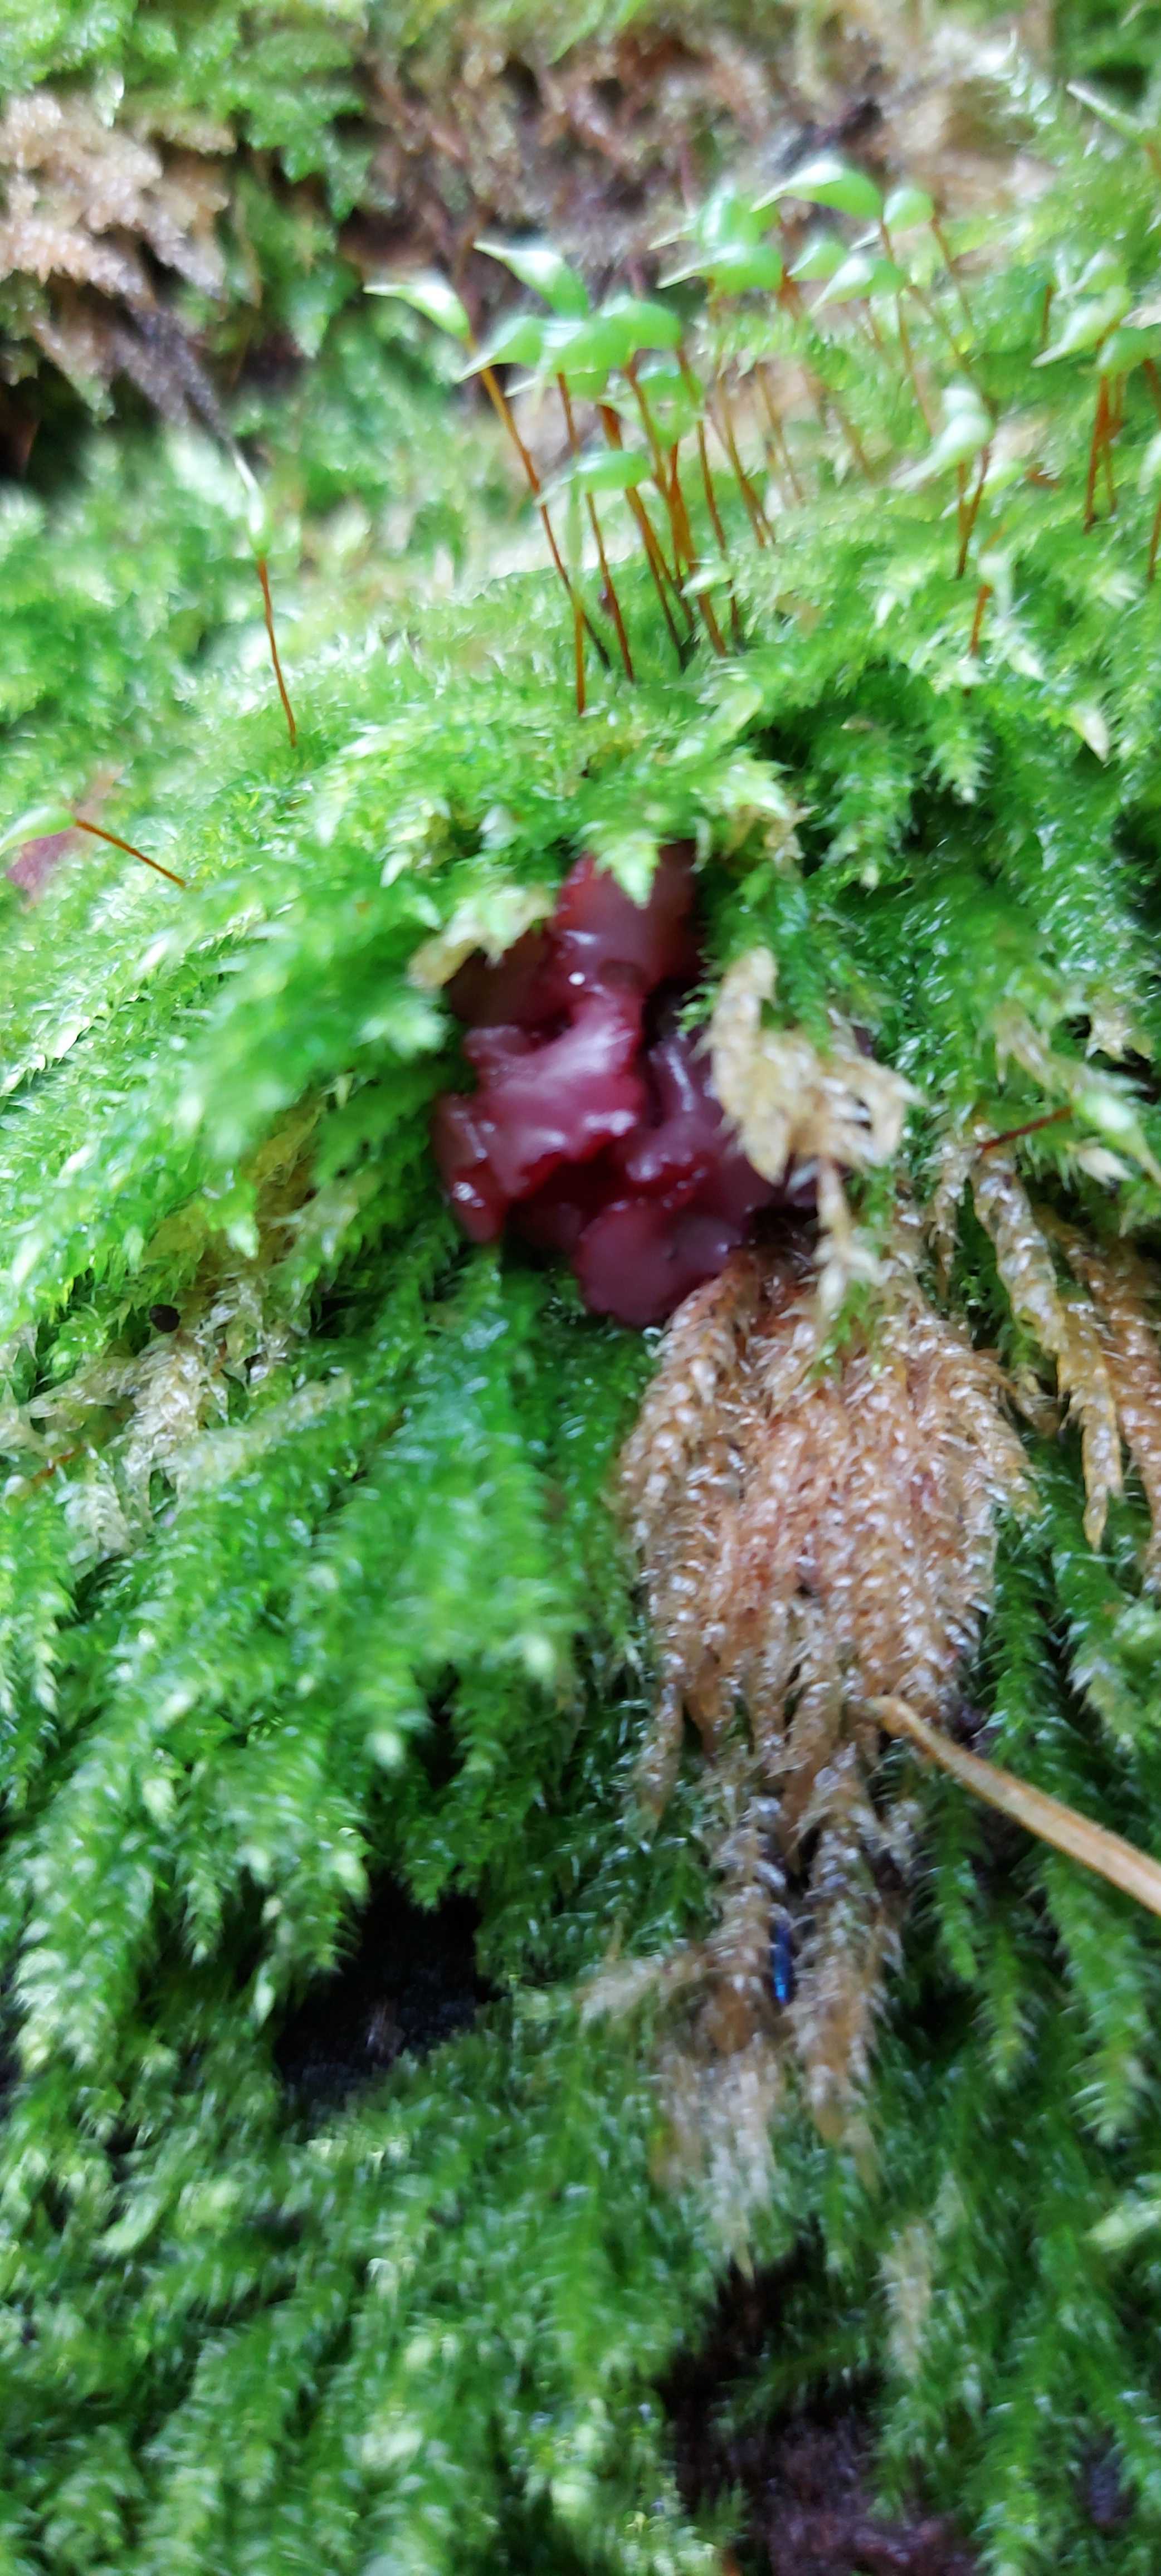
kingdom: Fungi
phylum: Ascomycota
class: Leotiomycetes
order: Helotiales
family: Gelatinodiscaceae
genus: Ascocoryne
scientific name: Ascocoryne sarcoides
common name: rødlilla sejskive
